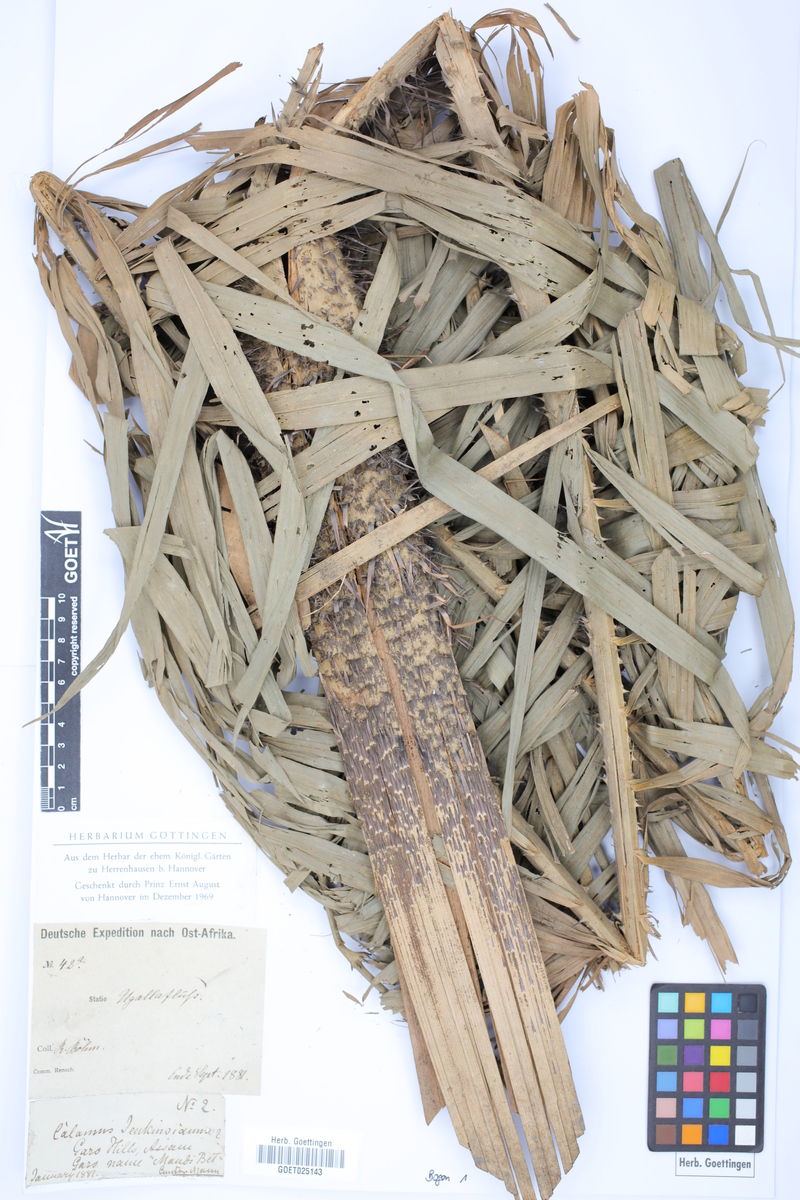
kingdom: Plantae
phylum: Tracheophyta
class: Liliopsida
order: Arecales
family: Arecaceae
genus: Calamus
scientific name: Calamus
